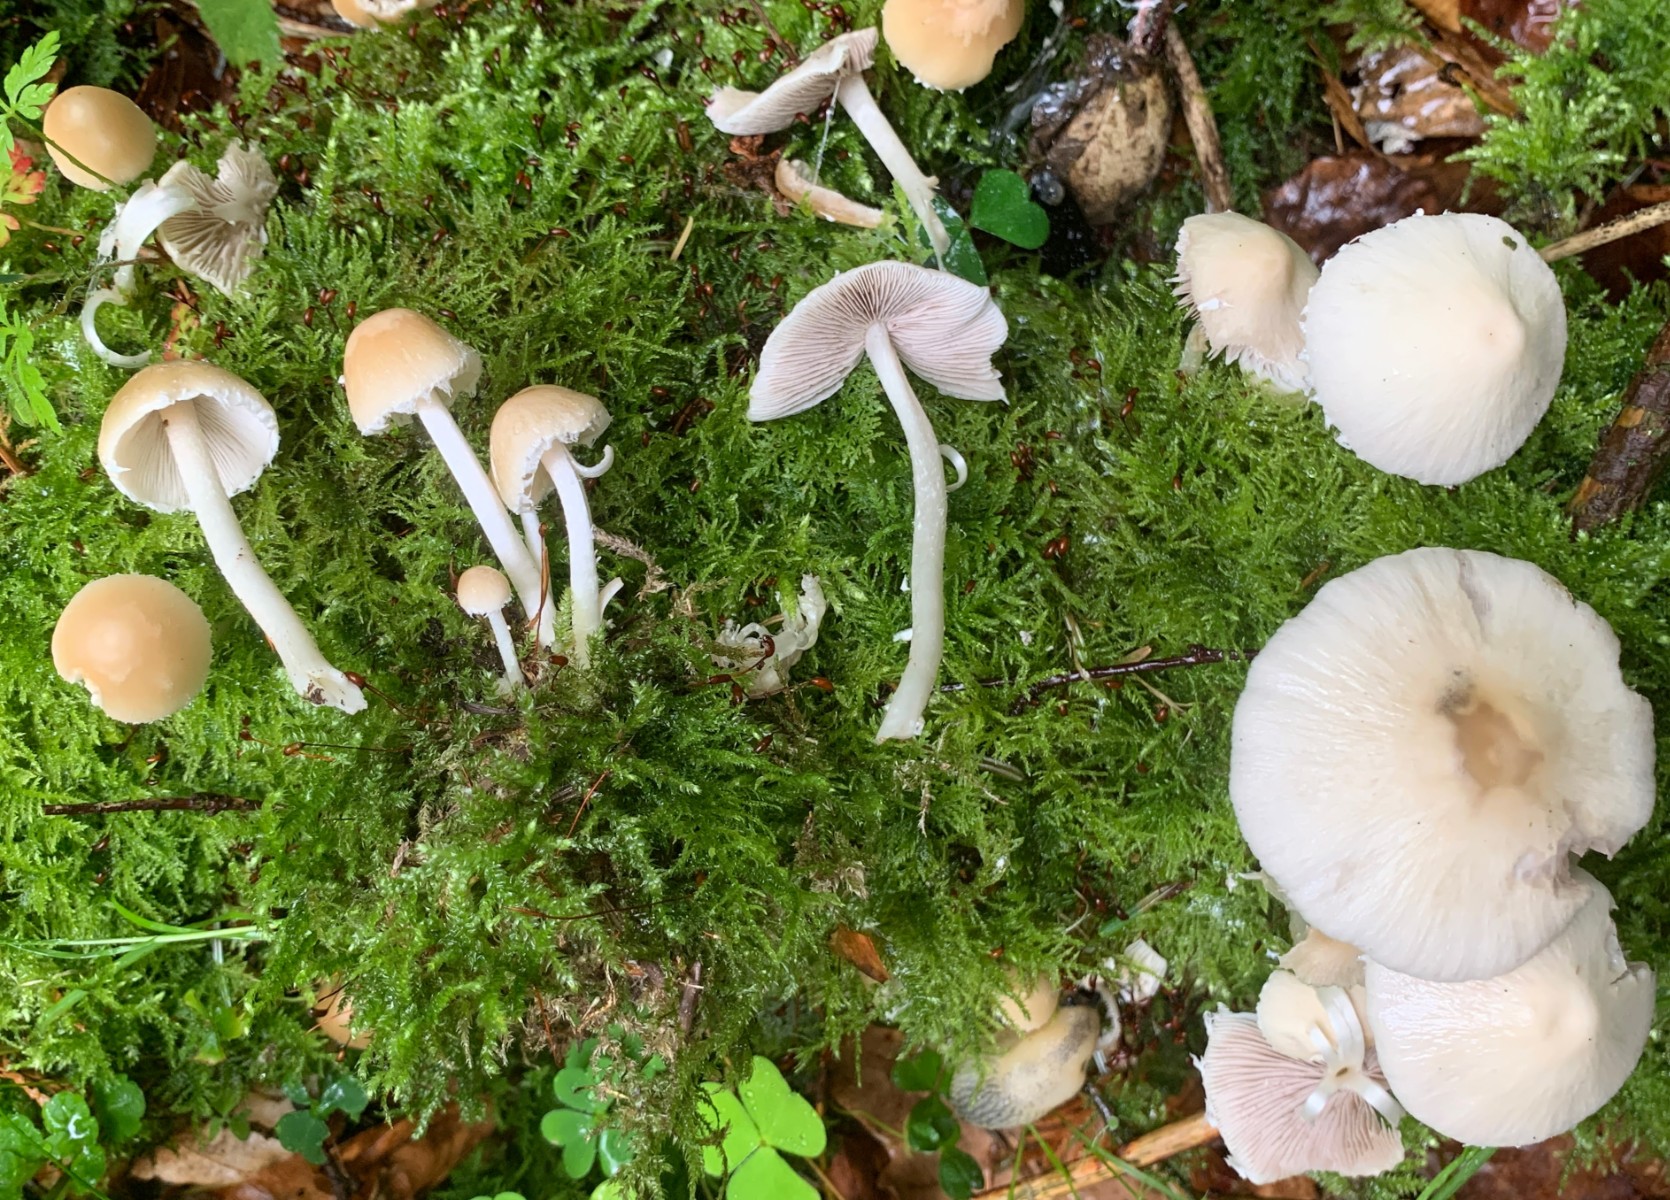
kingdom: Fungi
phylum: Basidiomycota
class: Agaricomycetes
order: Agaricales
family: Psathyrellaceae
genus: Candolleomyces
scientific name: Candolleomyces candolleanus
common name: Candolles mørkhat
